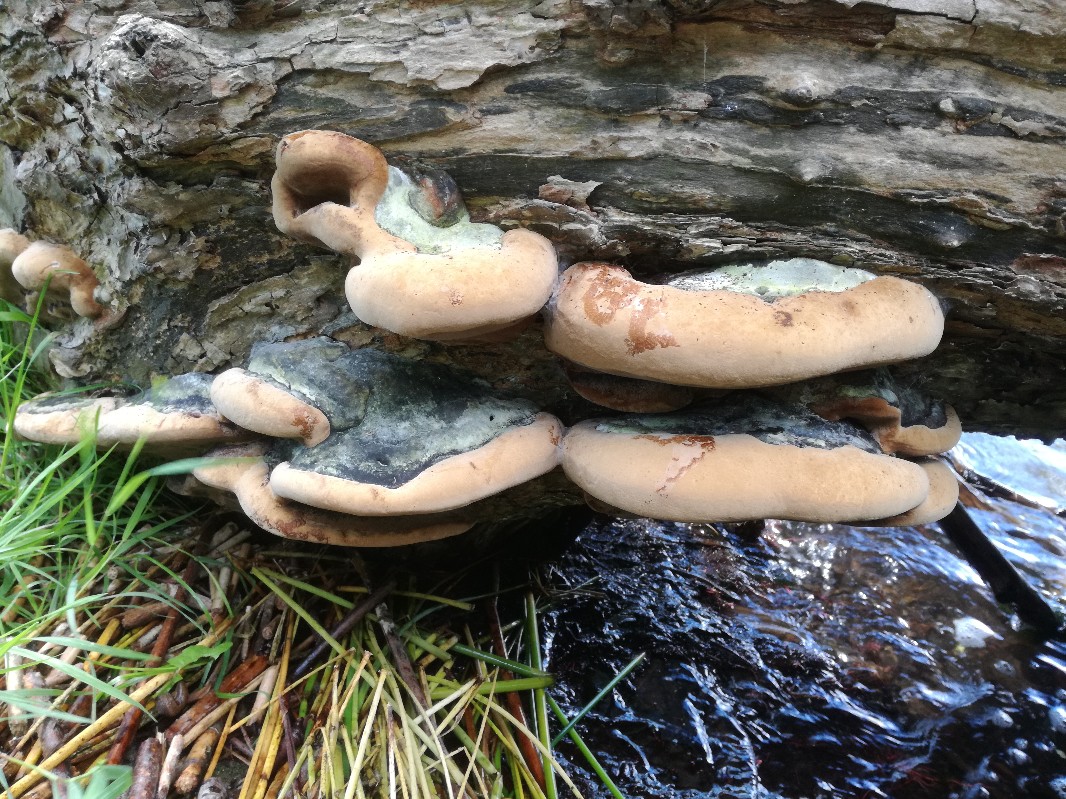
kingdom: Fungi
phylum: Basidiomycota
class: Agaricomycetes
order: Hymenochaetales
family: Hymenochaetaceae
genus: Phellinus
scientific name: Phellinus igniarius
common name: almindelig ildporesvamp
